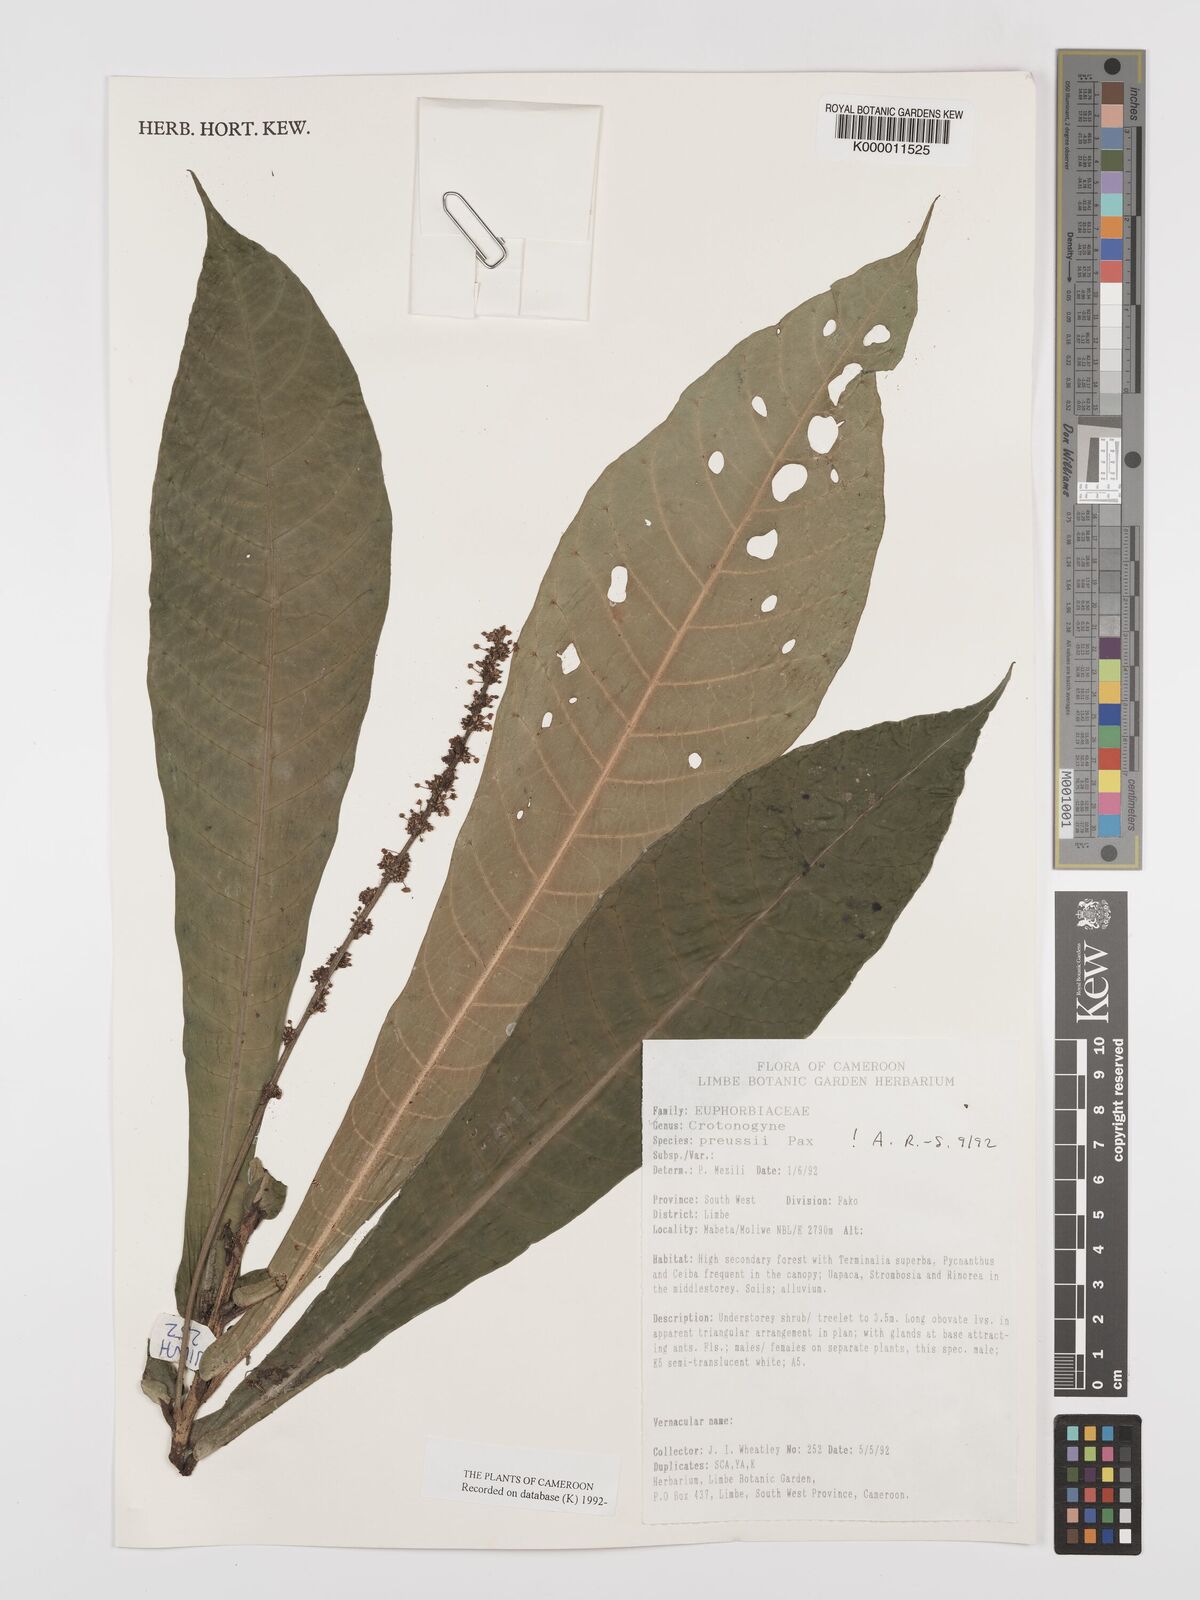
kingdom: Plantae
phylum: Tracheophyta
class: Magnoliopsida
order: Malpighiales
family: Euphorbiaceae
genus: Crotonogyne
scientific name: Crotonogyne preussii
